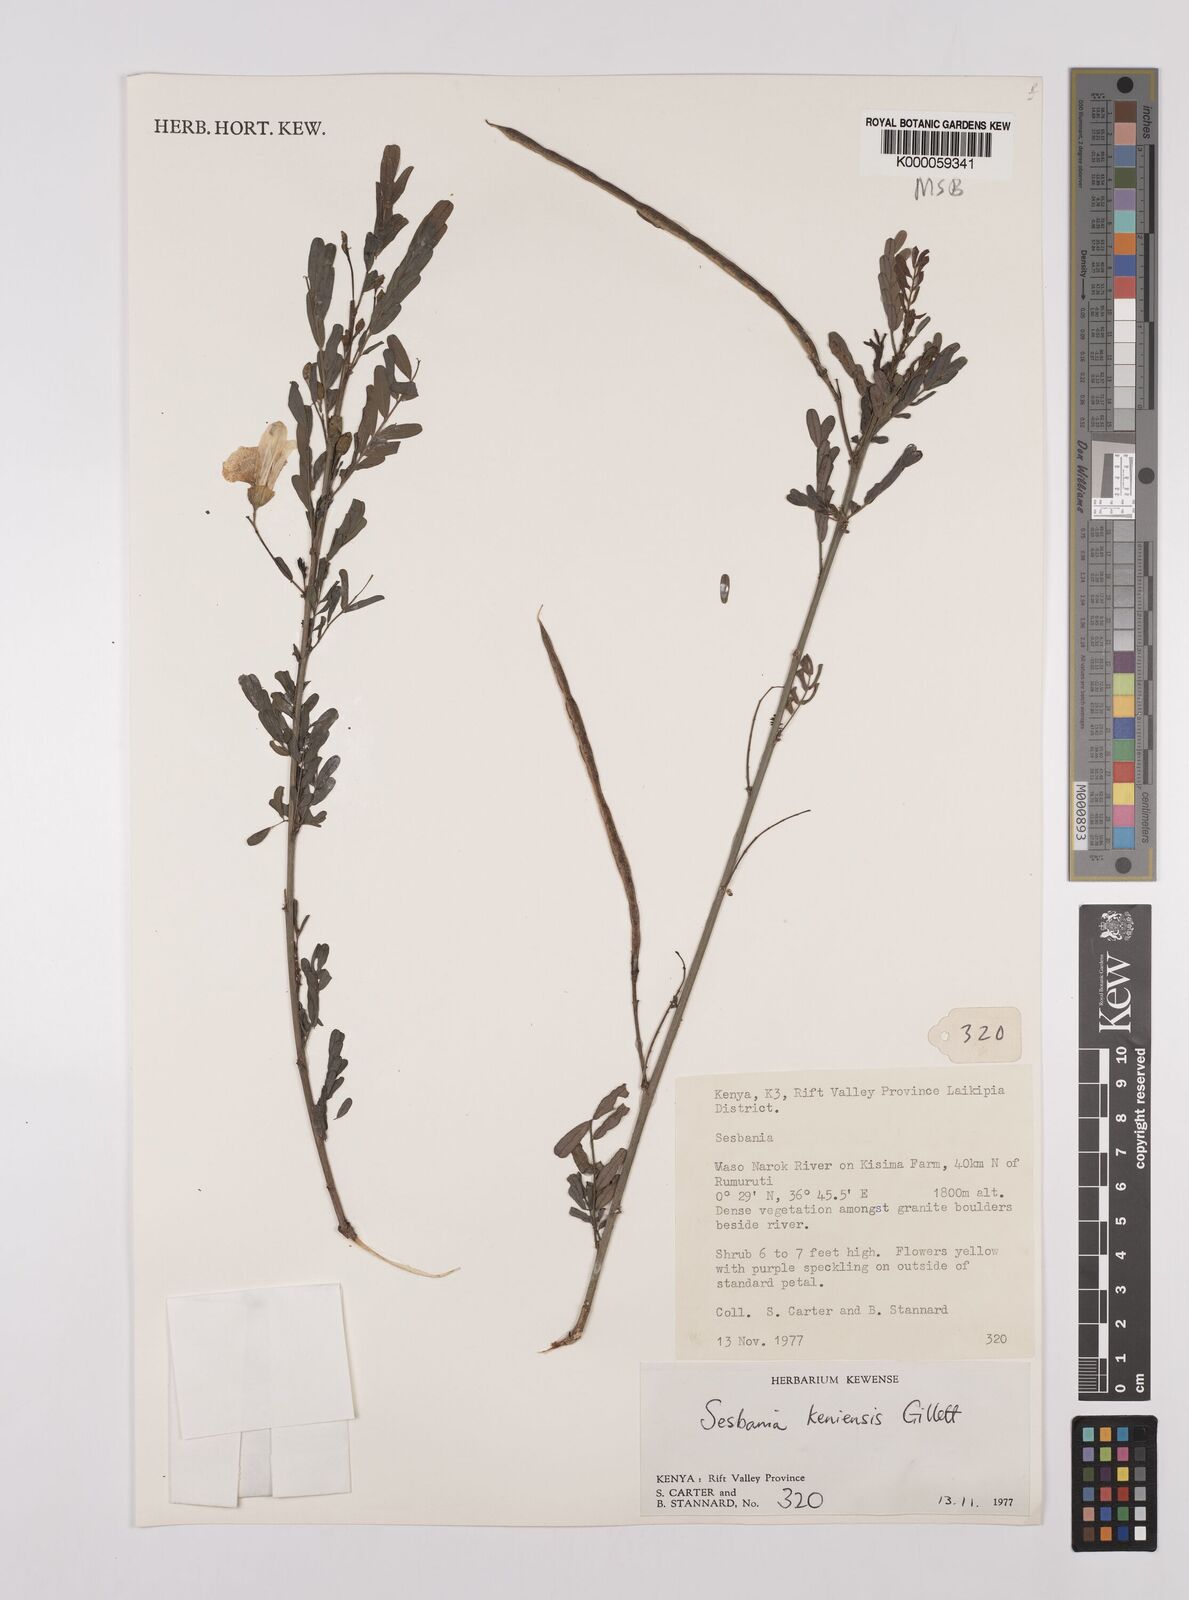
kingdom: Plantae
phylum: Tracheophyta
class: Magnoliopsida
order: Fabales
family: Fabaceae
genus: Sesbania
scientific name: Sesbania keniensis
